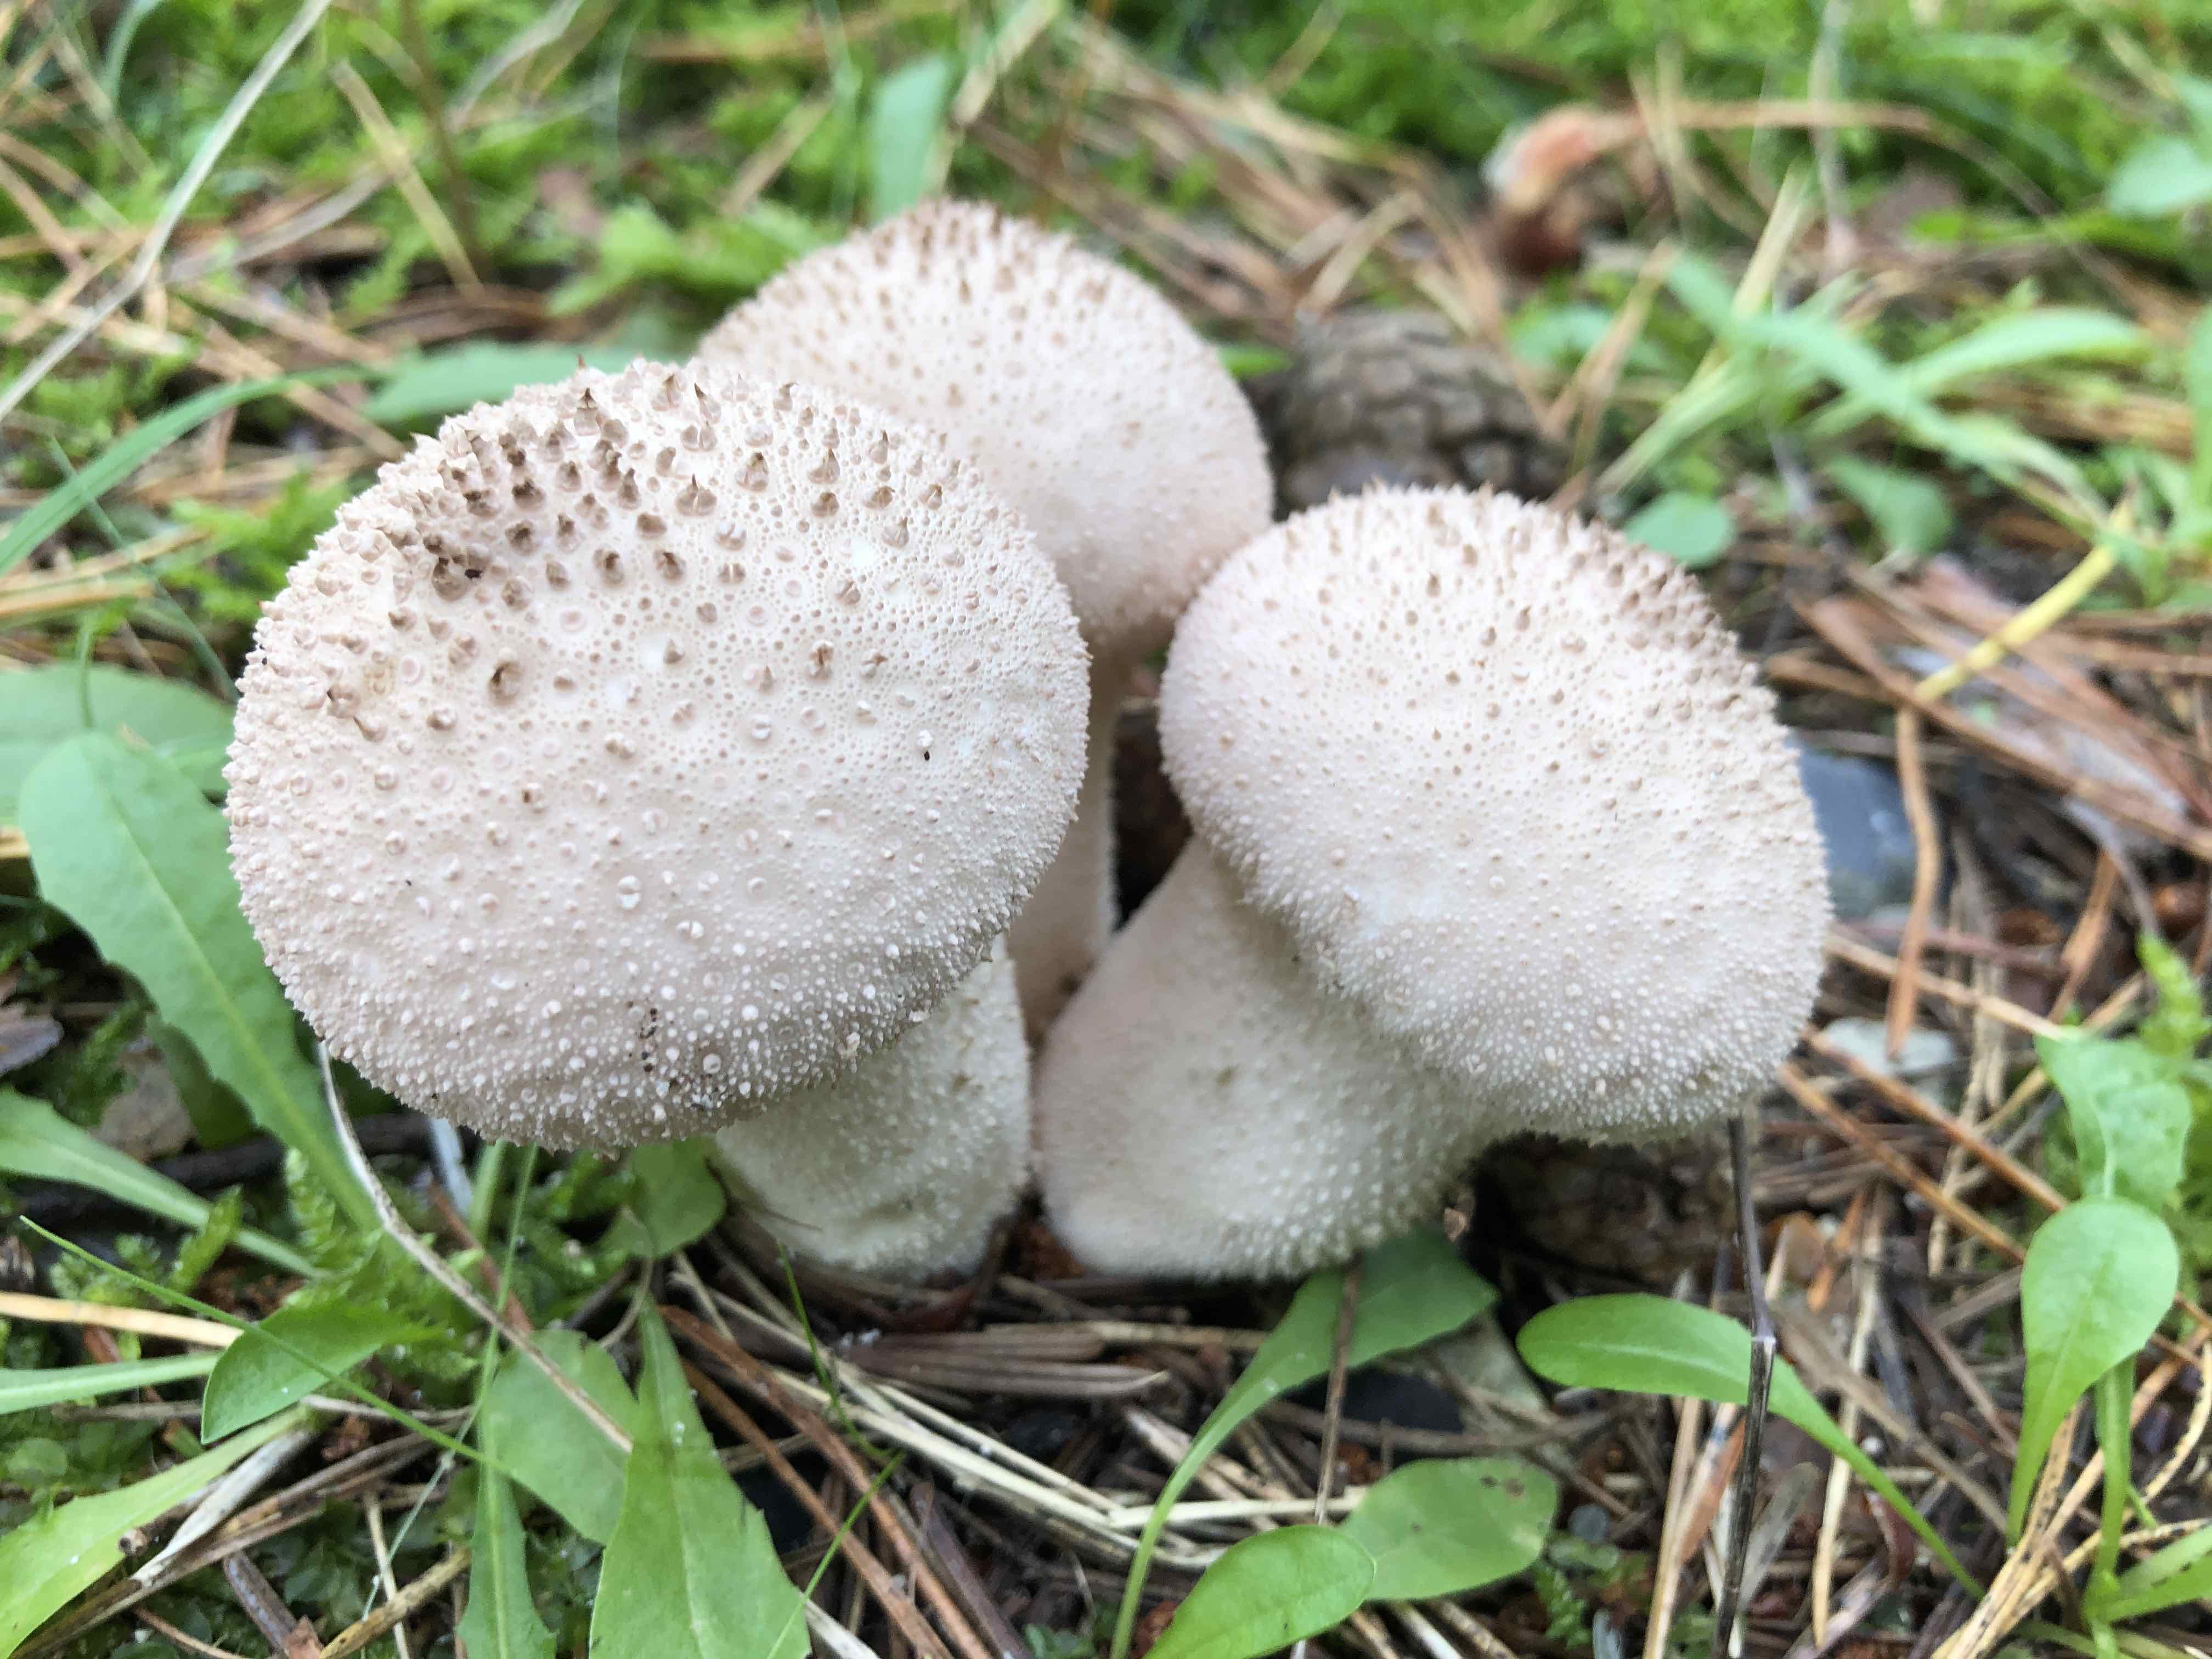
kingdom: Fungi
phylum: Basidiomycota
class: Agaricomycetes
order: Agaricales
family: Lycoperdaceae
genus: Lycoperdon
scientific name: Lycoperdon perlatum
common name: krystal-støvbold
